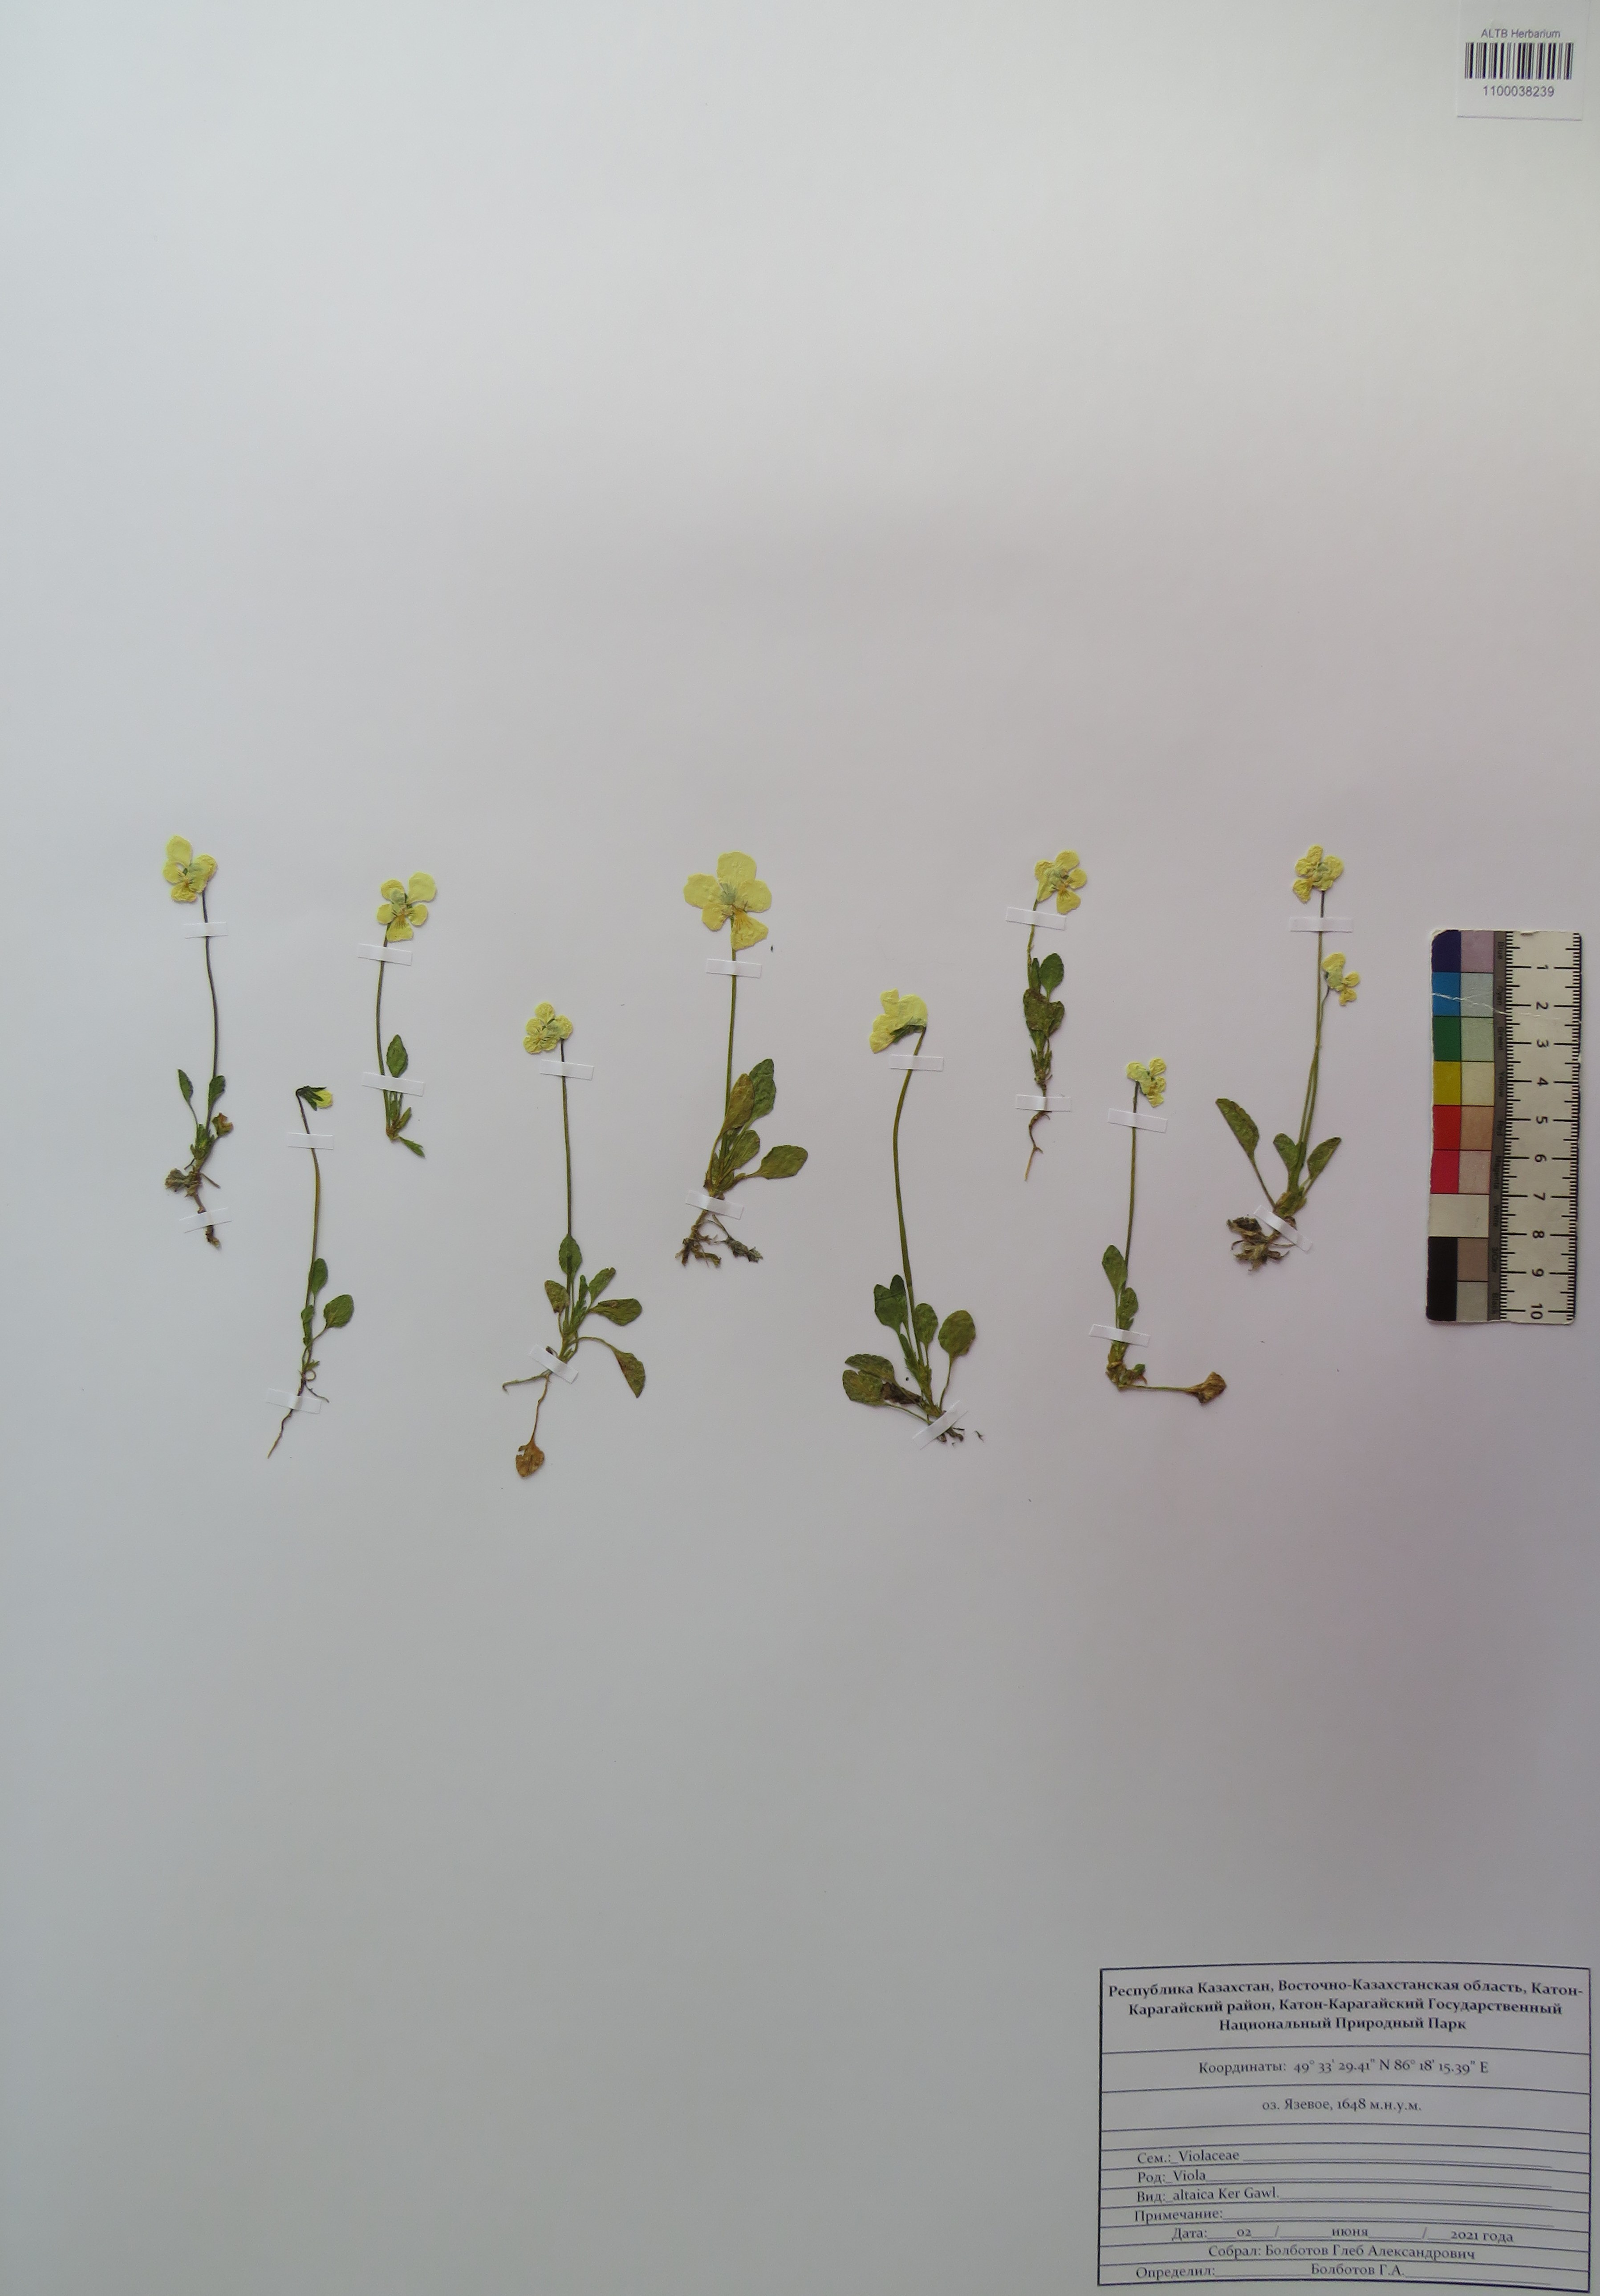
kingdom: Plantae
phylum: Tracheophyta
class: Magnoliopsida
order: Malpighiales
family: Violaceae
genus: Viola
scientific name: Viola altaica
